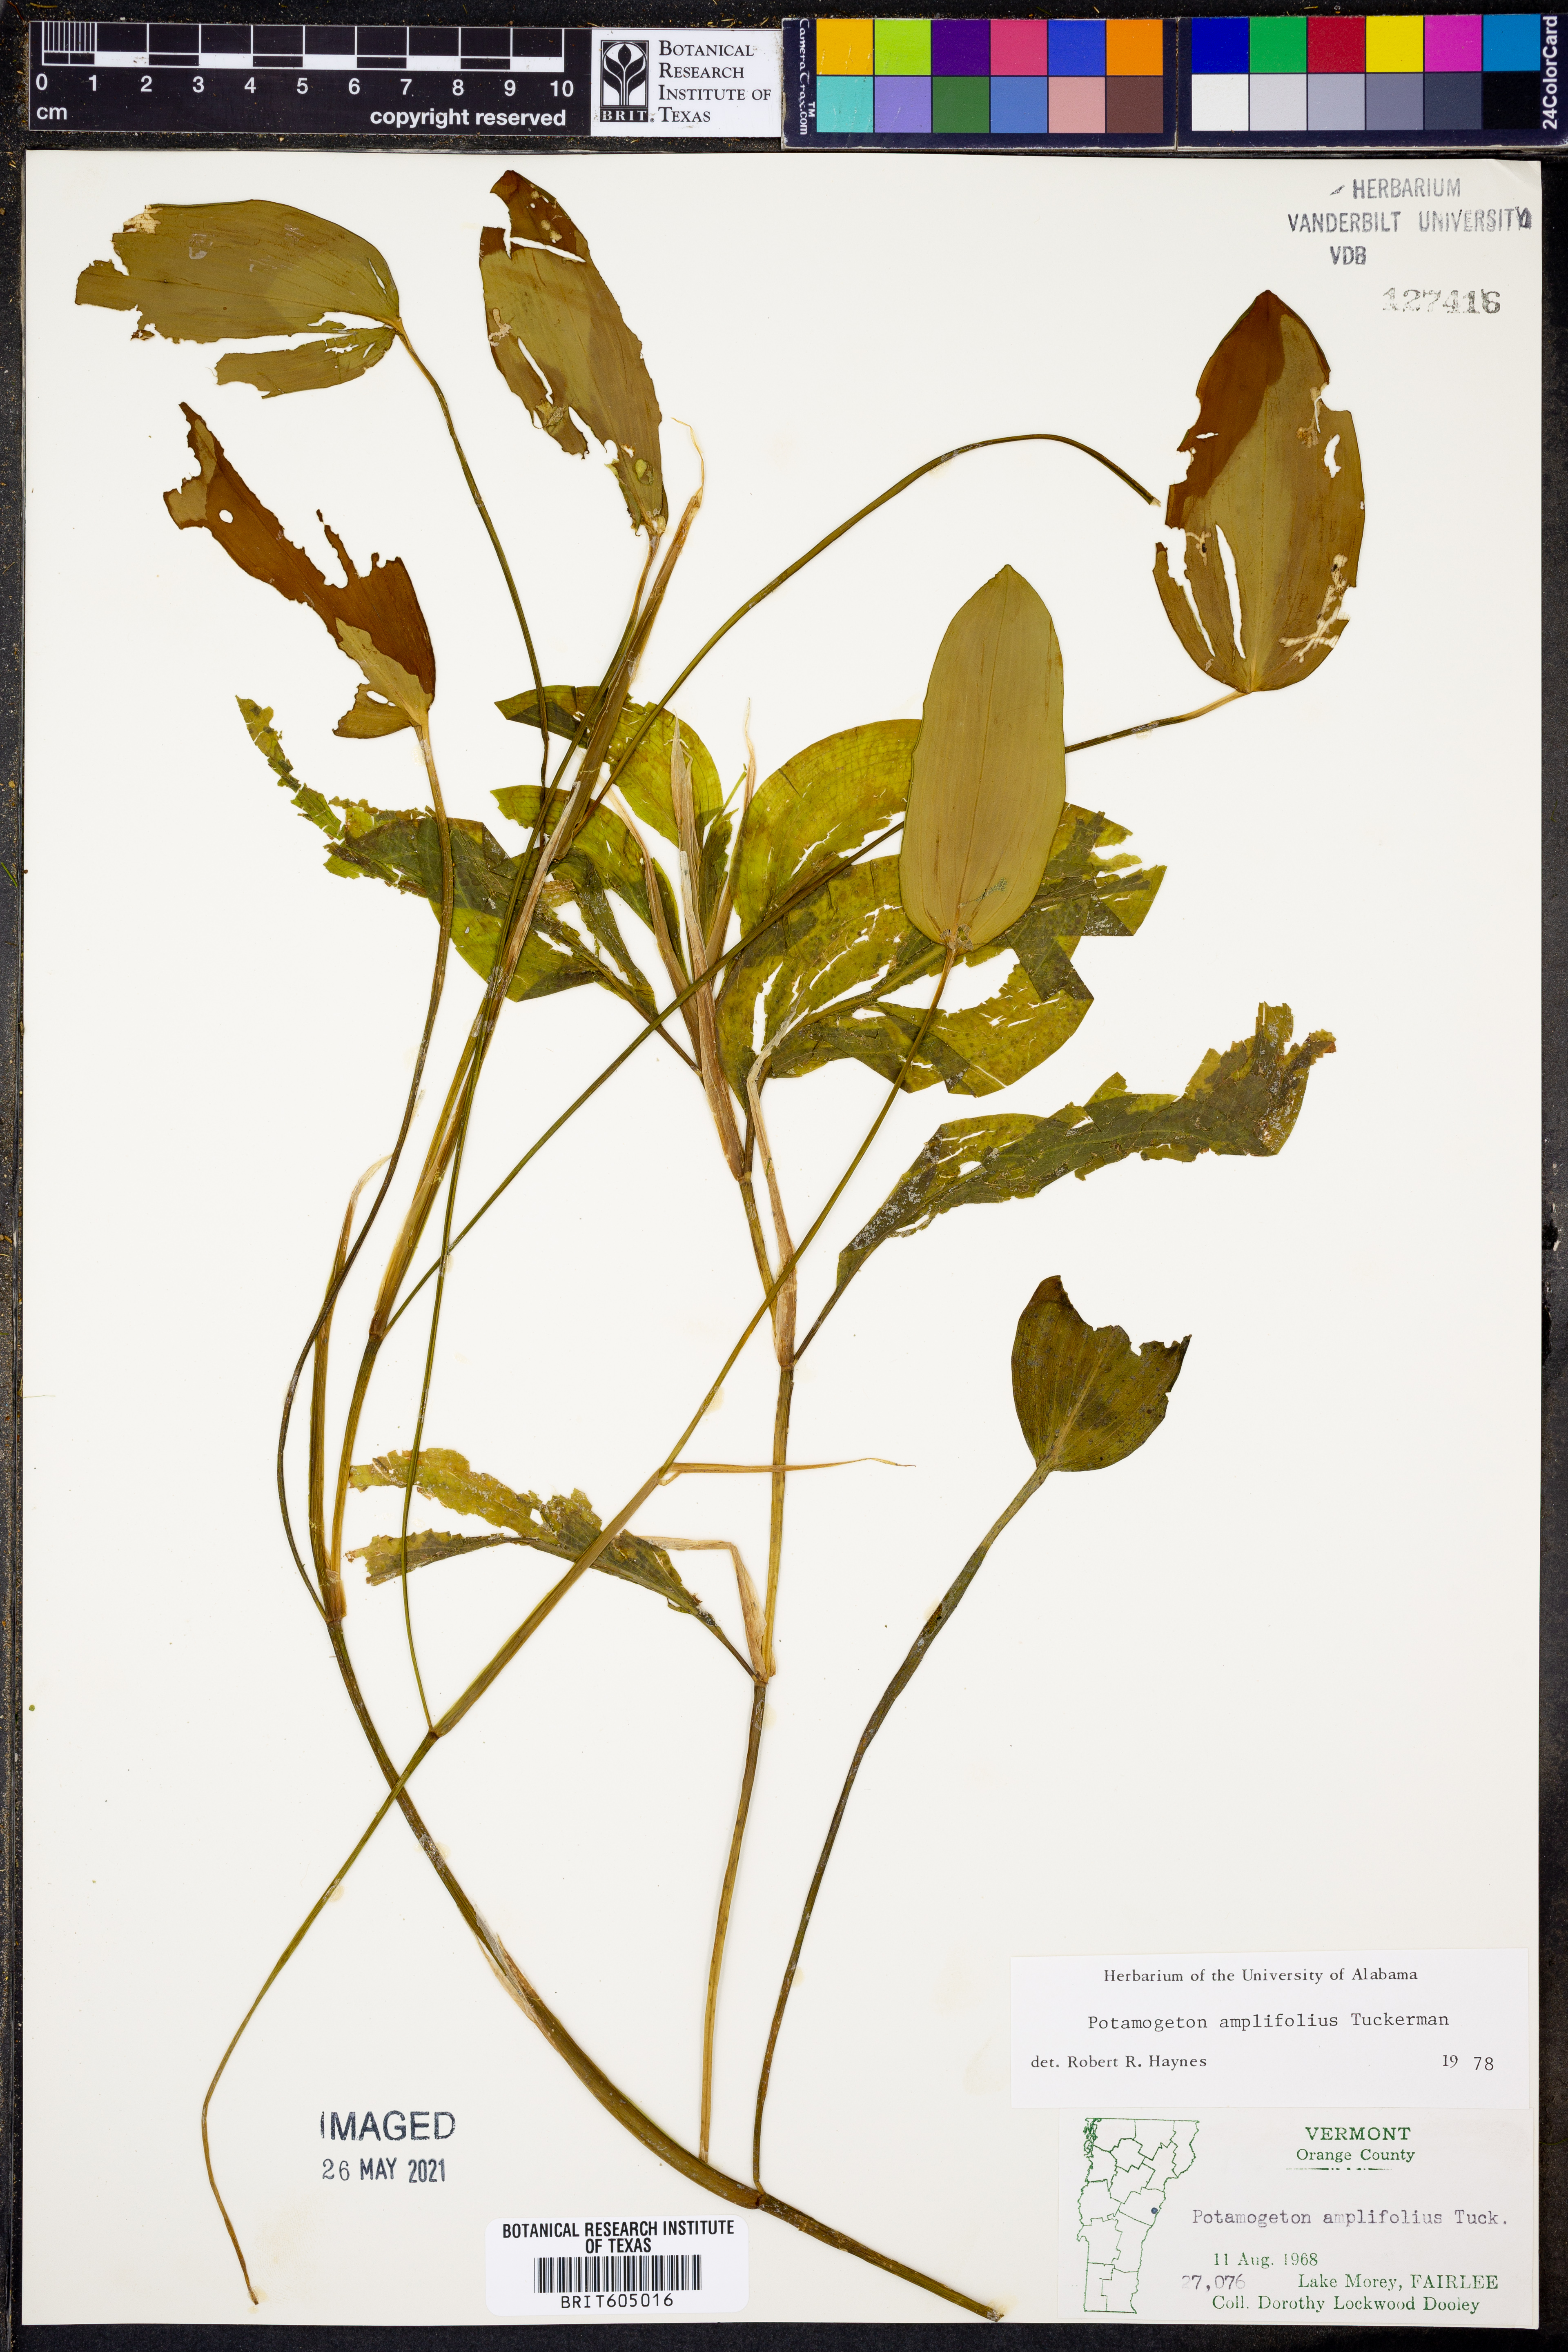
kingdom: Plantae
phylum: Tracheophyta
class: Liliopsida
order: Alismatales
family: Potamogetonaceae
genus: Potamogeton
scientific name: Potamogeton amplifolius
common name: Broad-leaved pondweed
